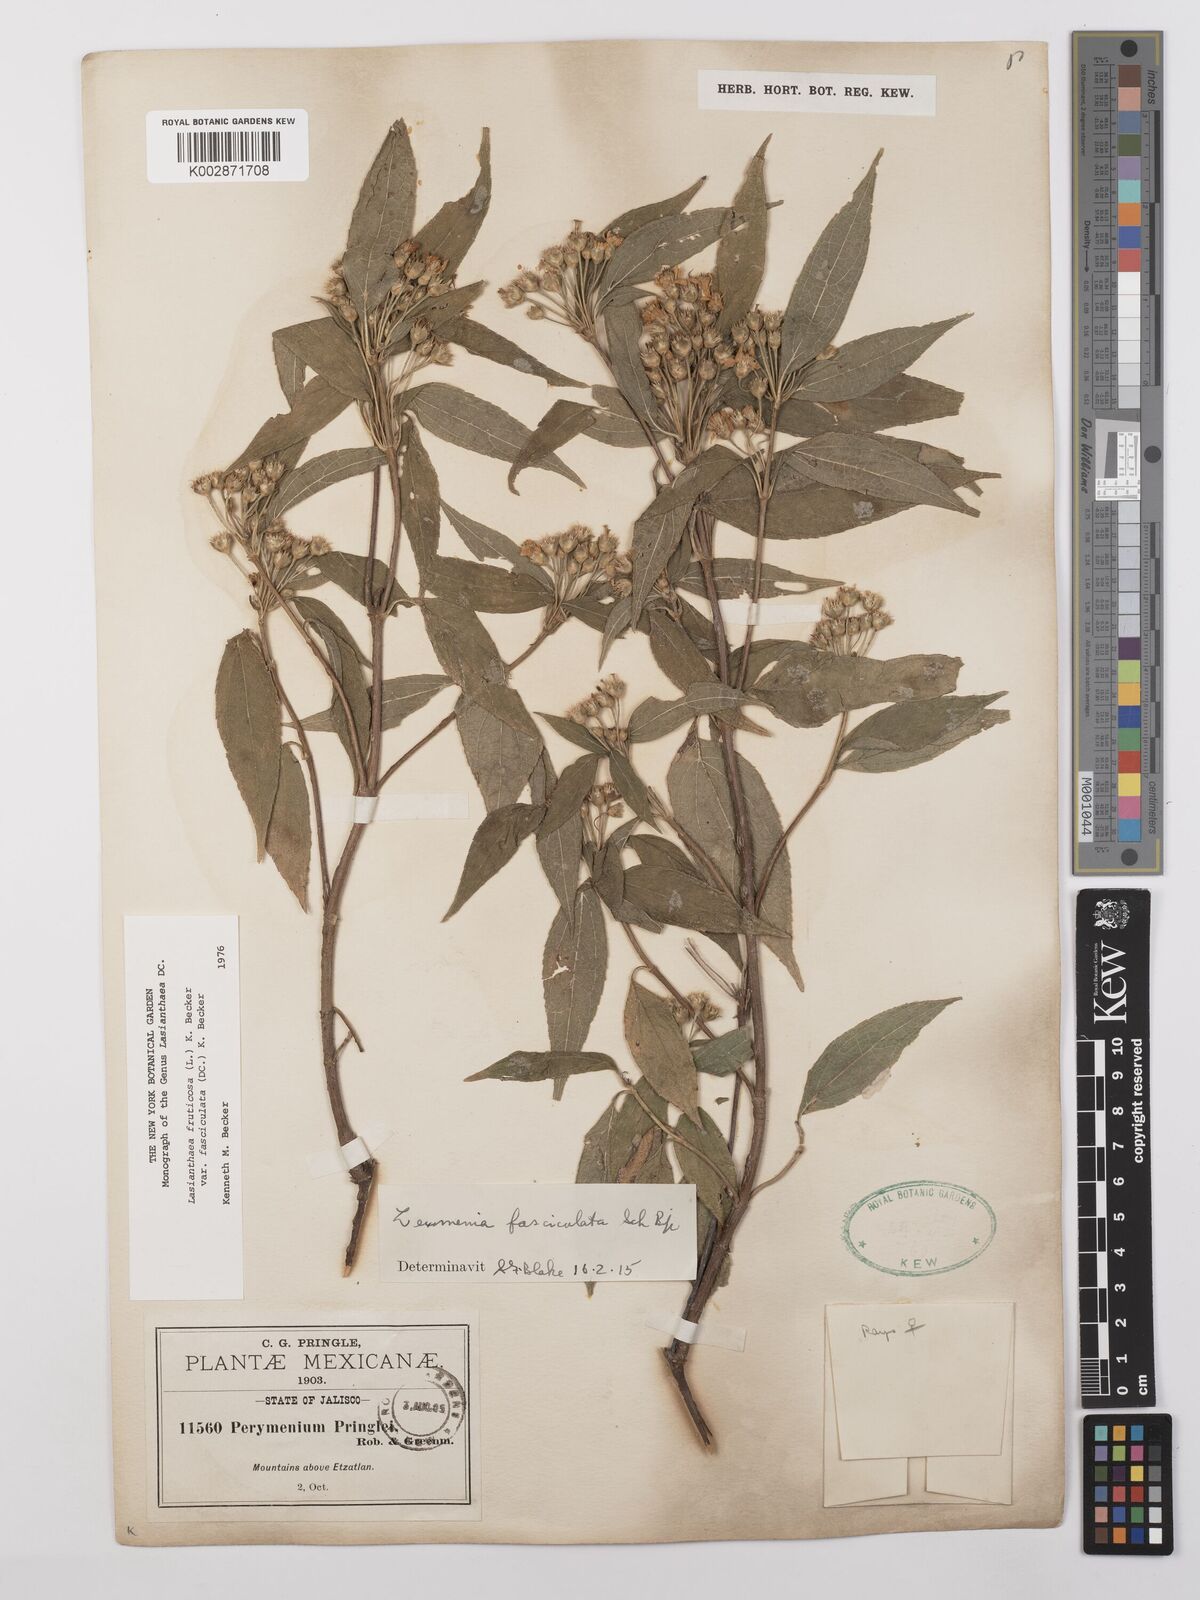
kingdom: Plantae
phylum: Tracheophyta
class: Magnoliopsida
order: Asterales
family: Asteraceae
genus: Lasianthaea
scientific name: Lasianthaea fruticosa
